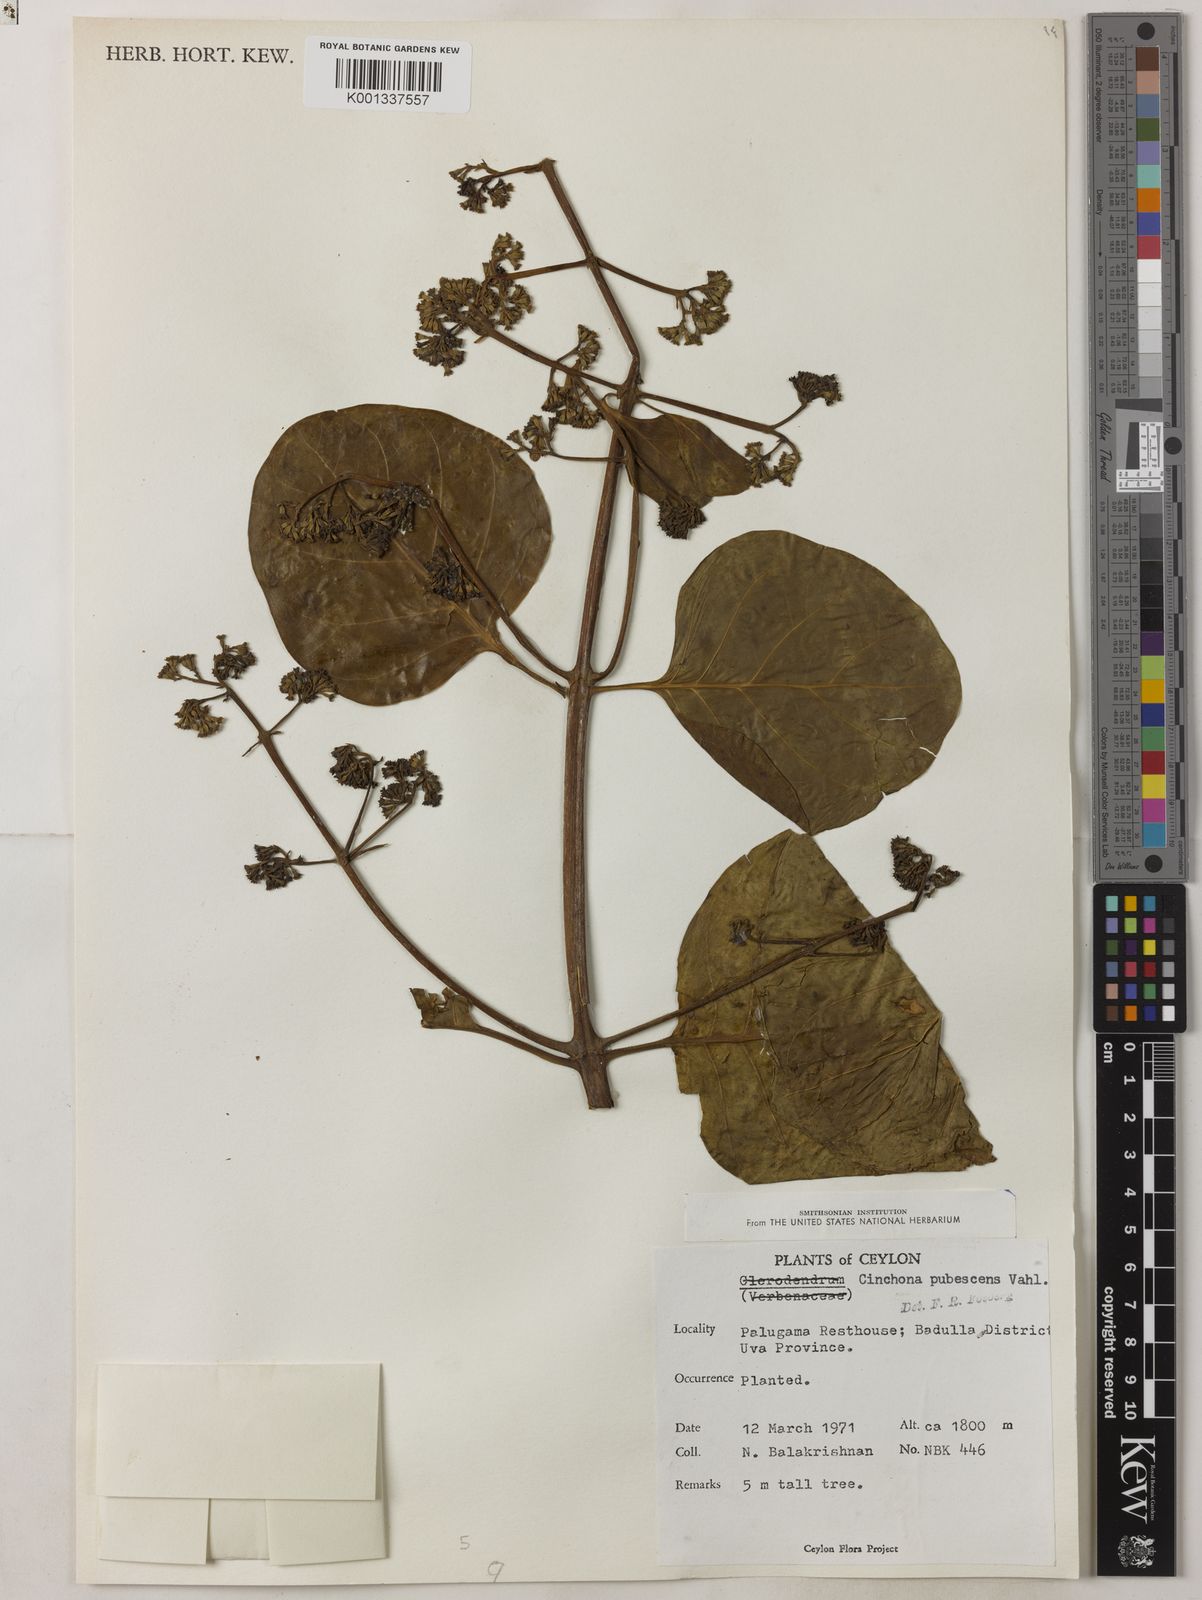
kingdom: Plantae
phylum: Tracheophyta
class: Magnoliopsida
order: Gentianales
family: Rubiaceae
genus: Cinchona
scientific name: Cinchona pubescens
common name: Quinine
